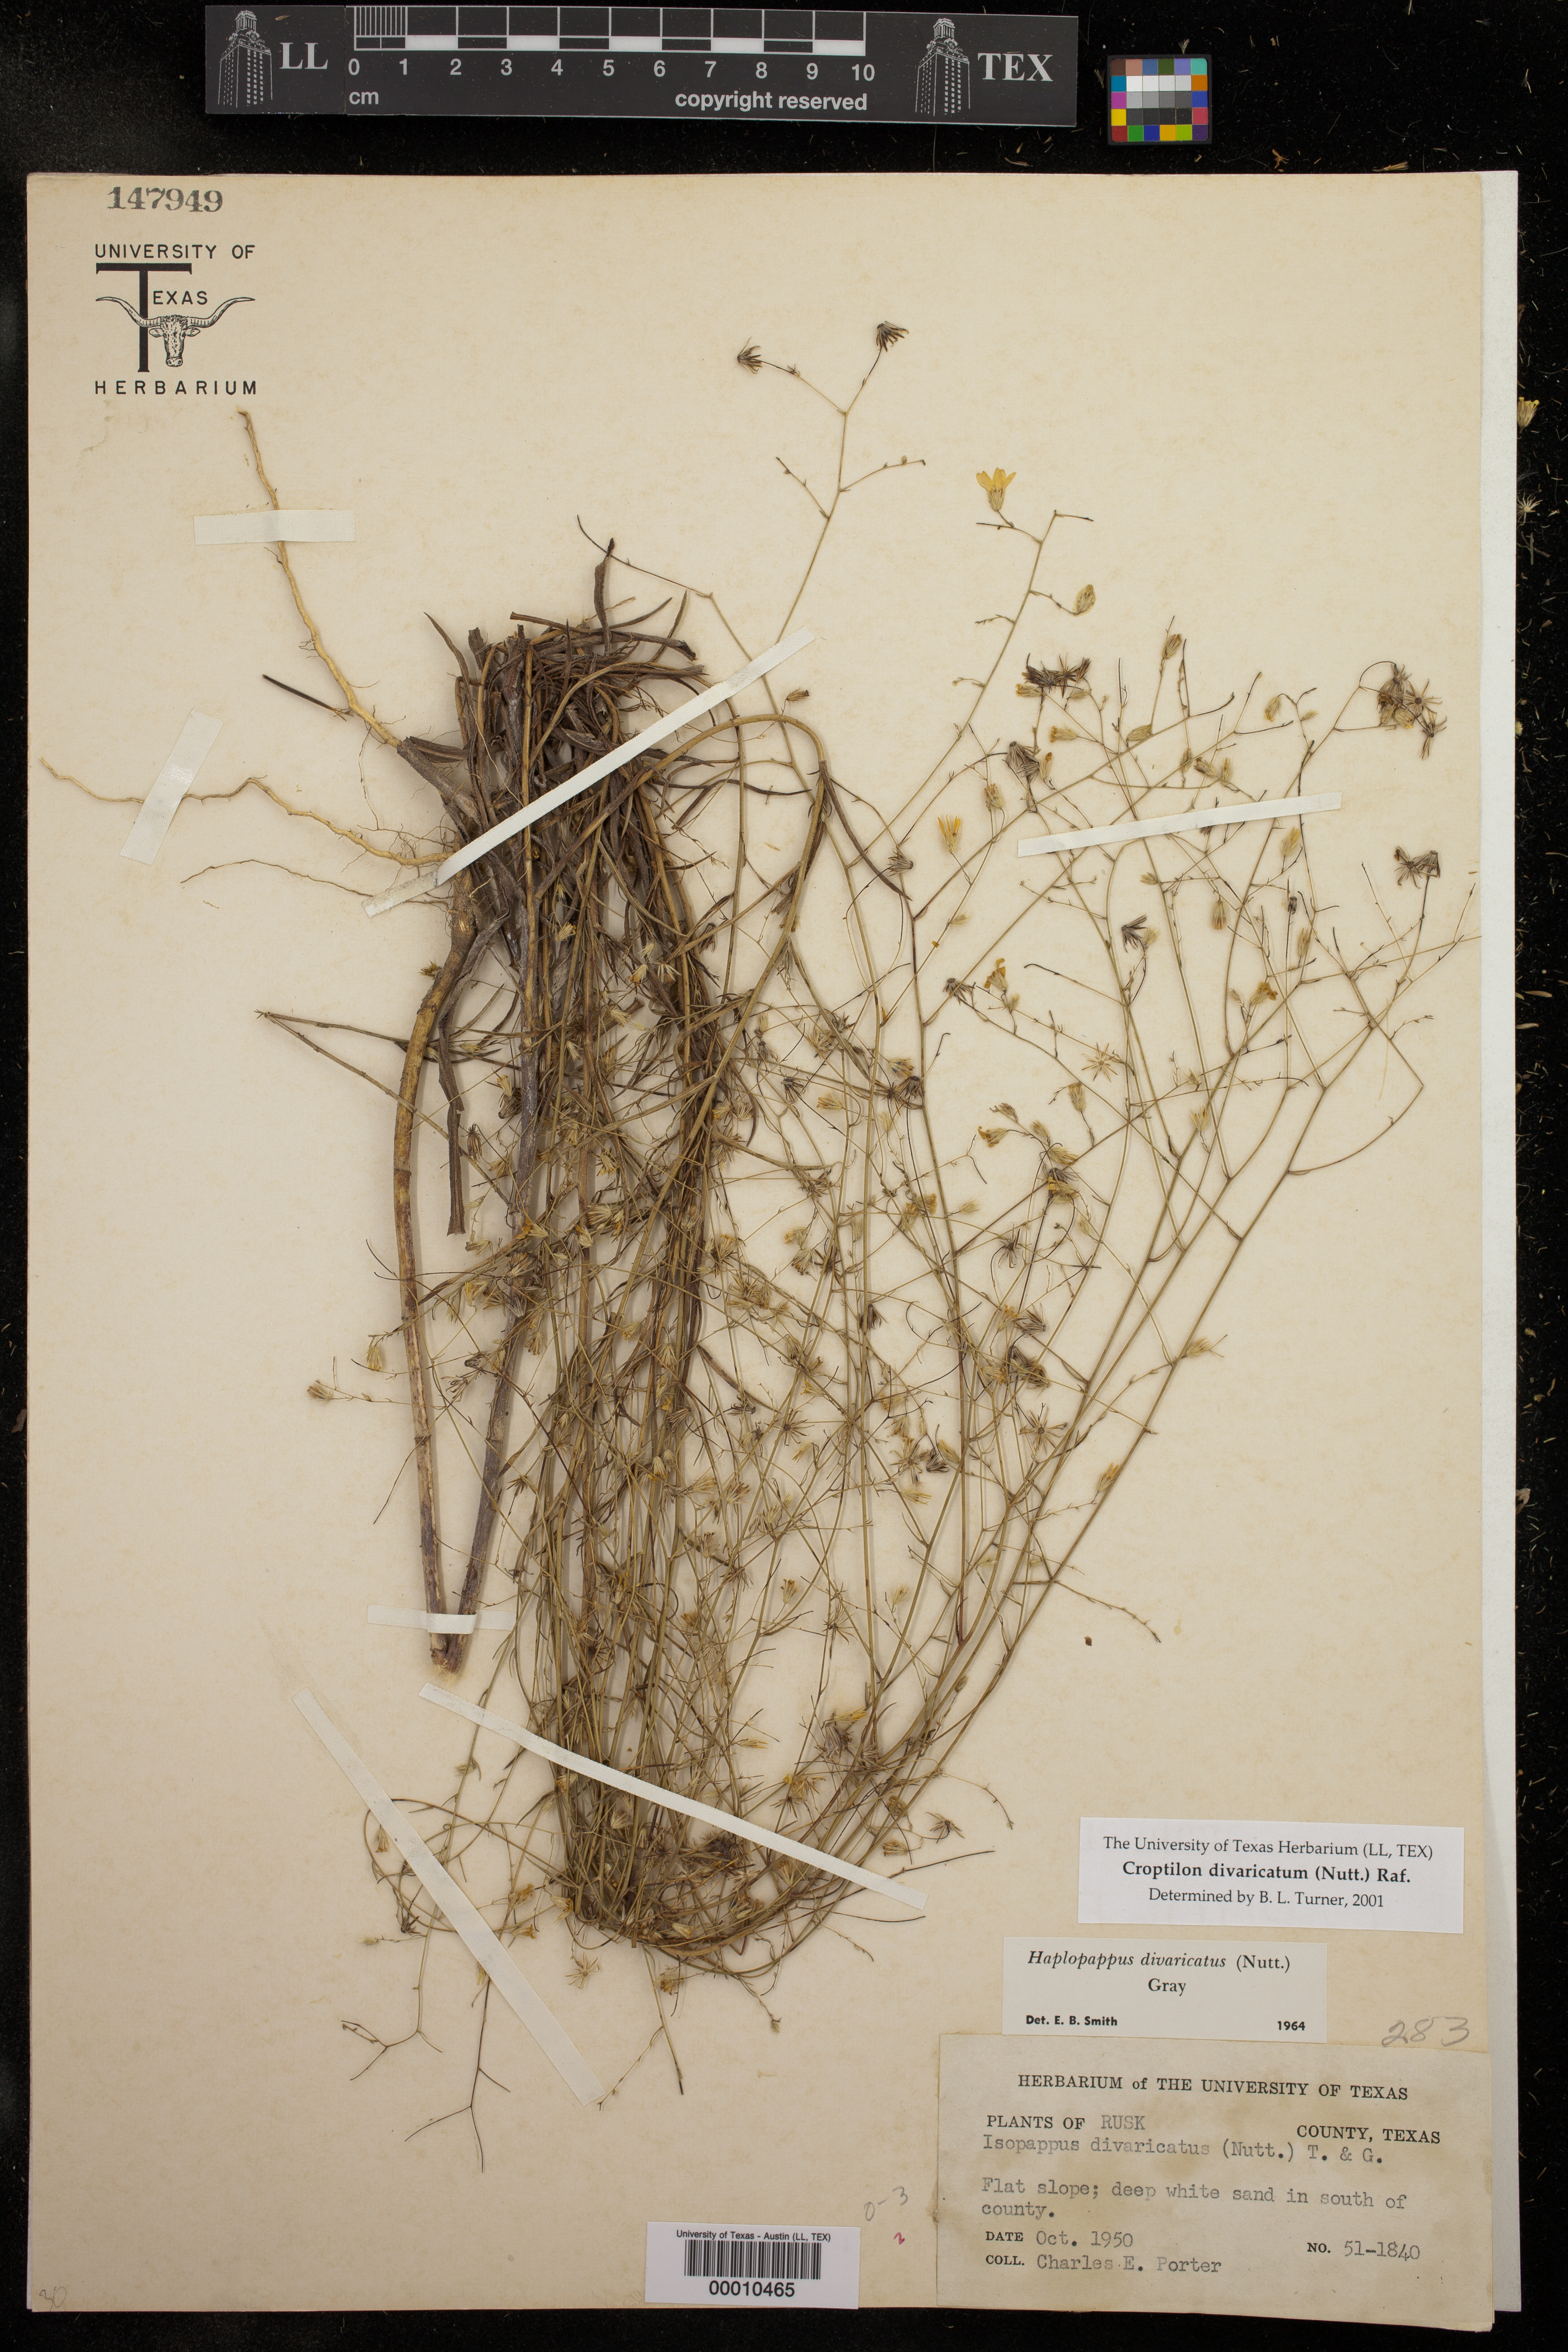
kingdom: Plantae
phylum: Tracheophyta
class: Magnoliopsida
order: Asterales
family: Asteraceae
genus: Croptilon
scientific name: Croptilon divaricatum
